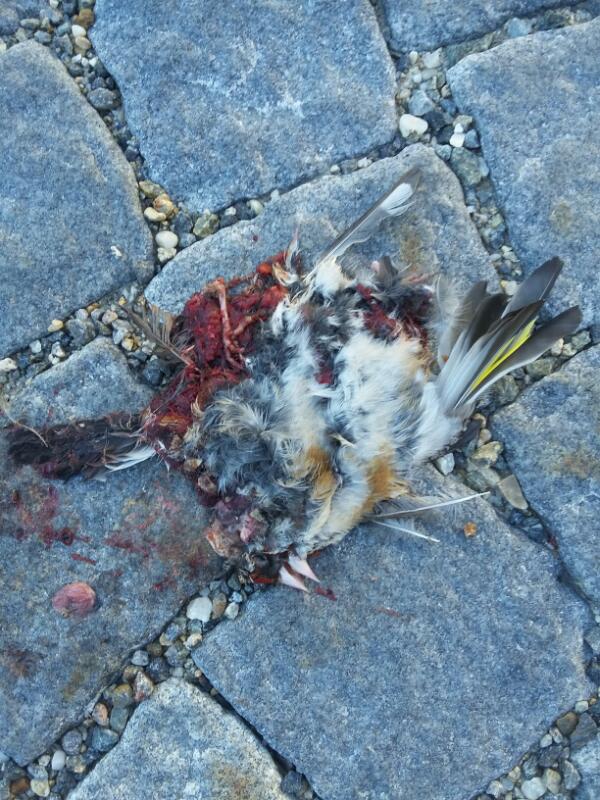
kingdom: Animalia
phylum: Chordata
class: Aves
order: Passeriformes
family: Fringillidae
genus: Carduelis
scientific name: Carduelis carduelis
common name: European goldfinch
